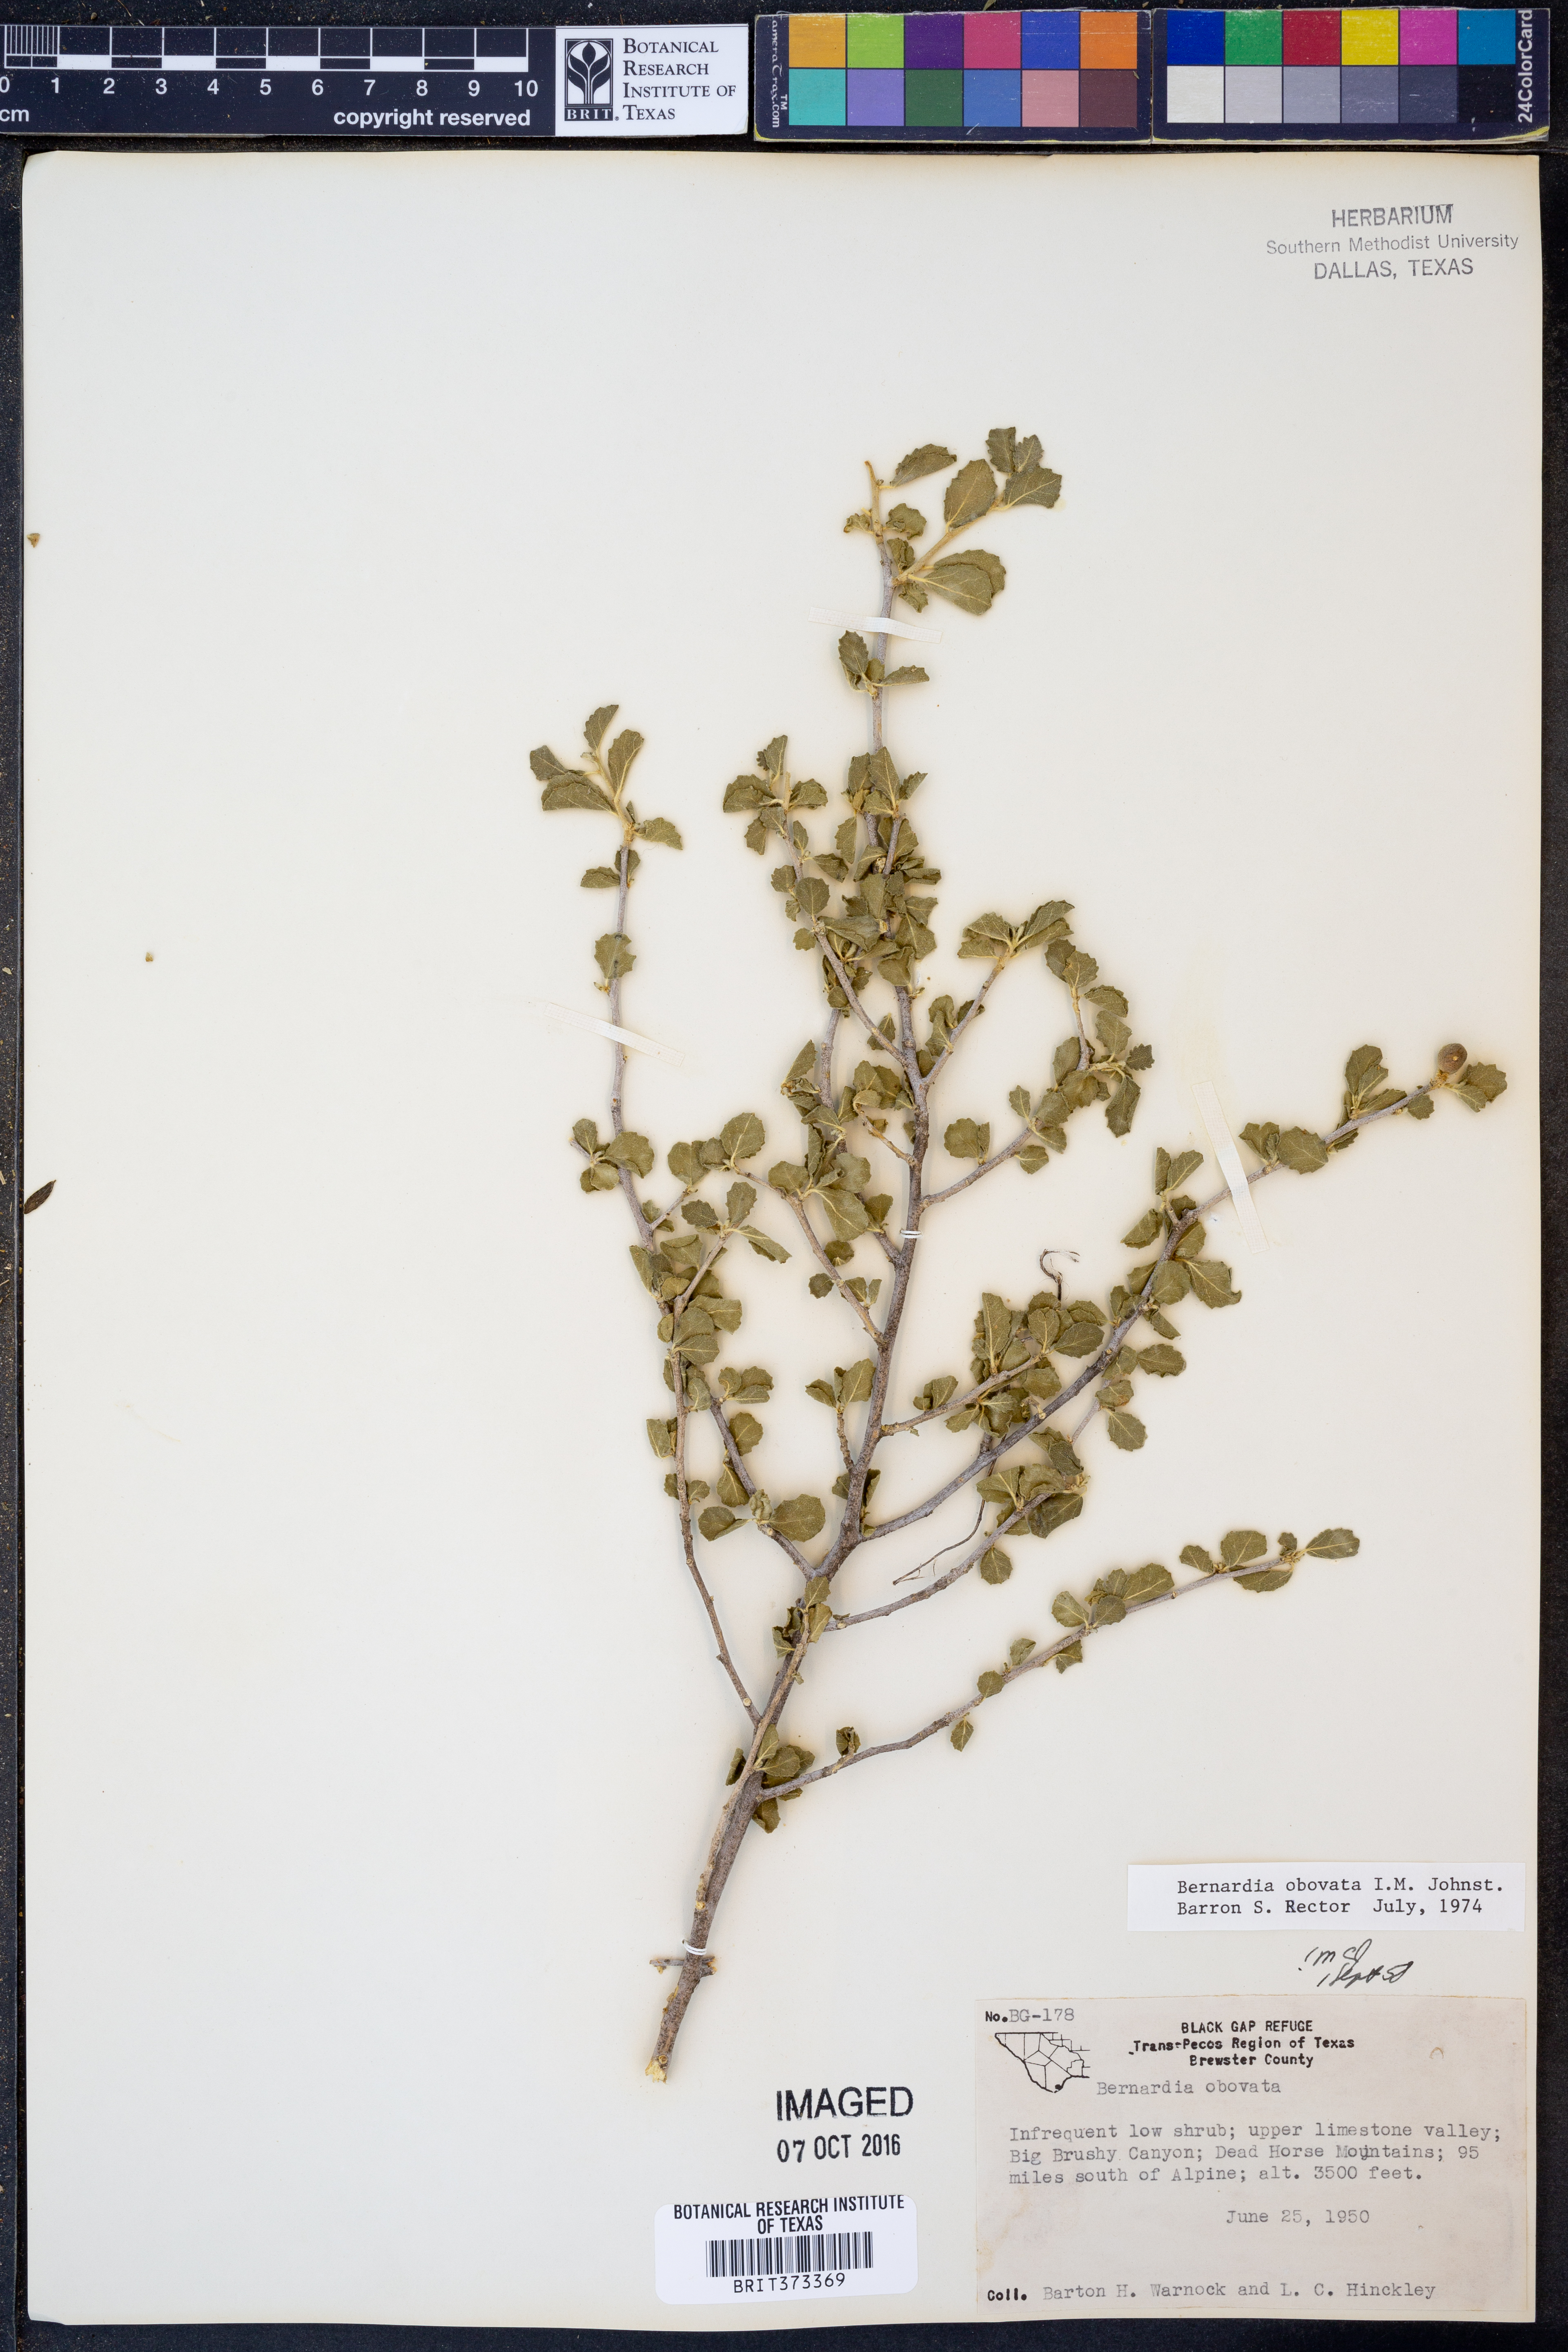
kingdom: Plantae
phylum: Tracheophyta
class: Magnoliopsida
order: Malpighiales
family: Euphorbiaceae
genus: Bernardia
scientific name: Bernardia obovata
